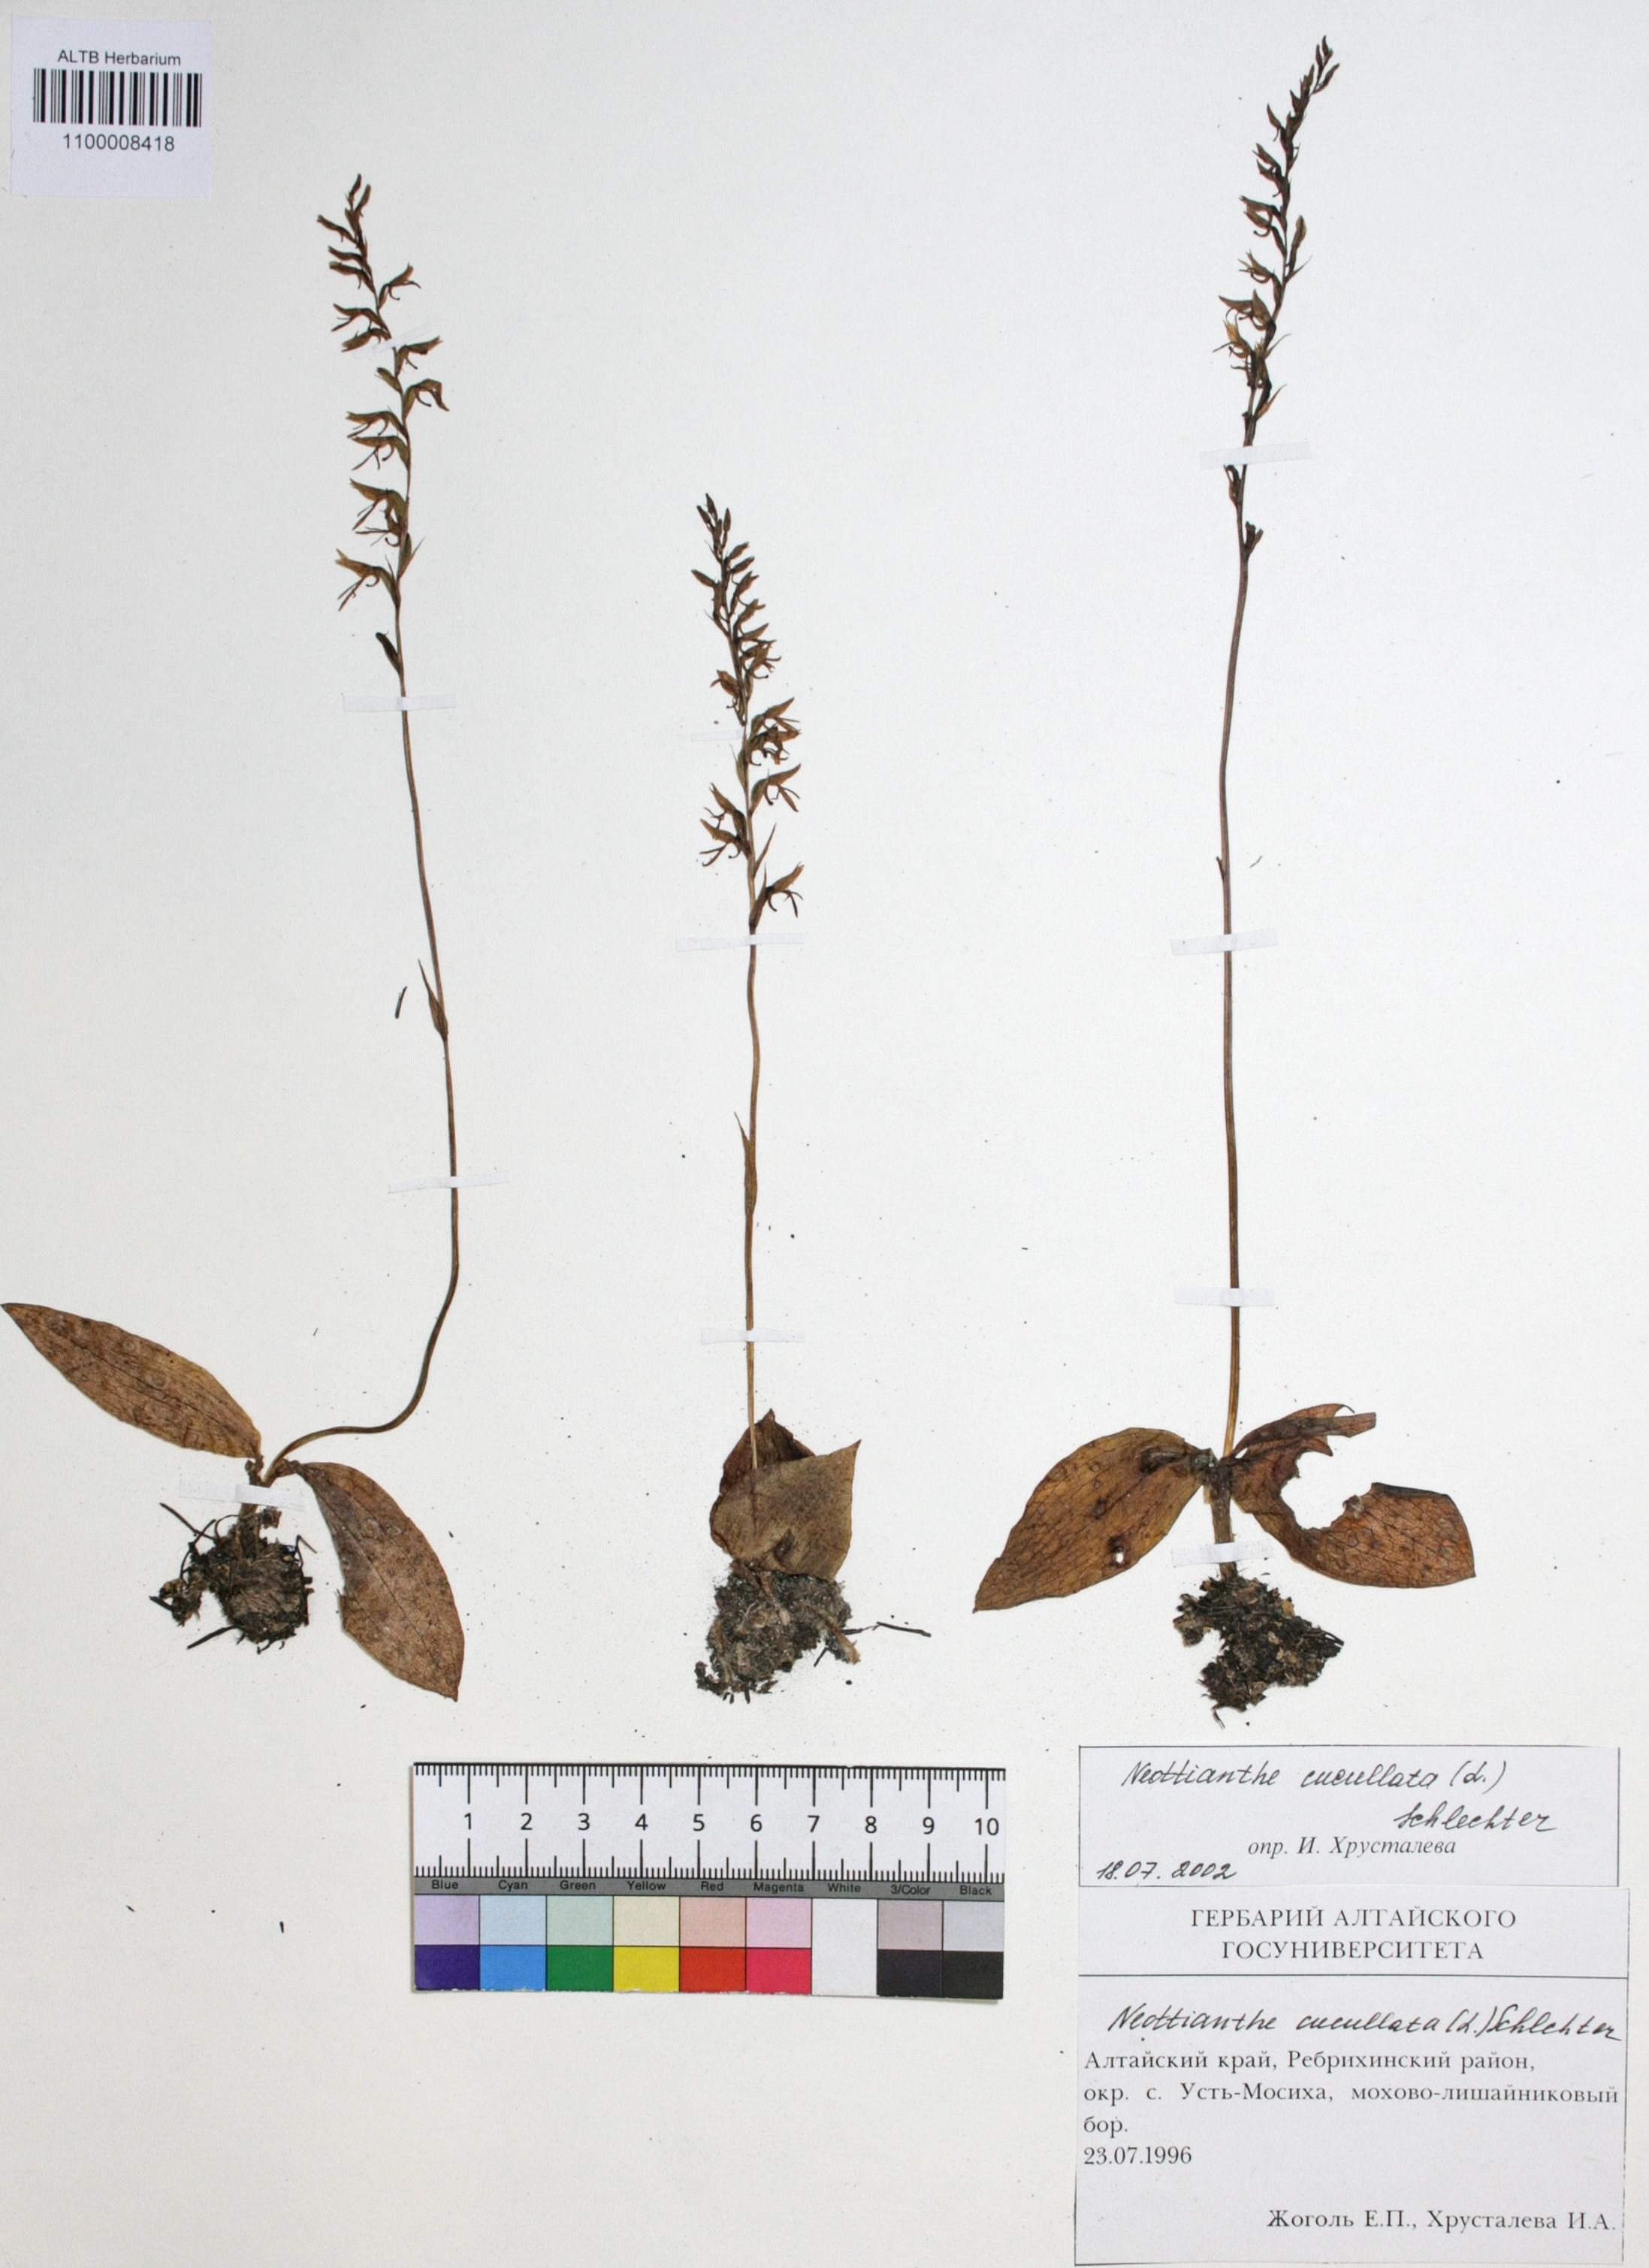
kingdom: Plantae
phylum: Tracheophyta
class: Liliopsida
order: Asparagales
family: Orchidaceae
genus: Hemipilia
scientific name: Hemipilia cucullata
